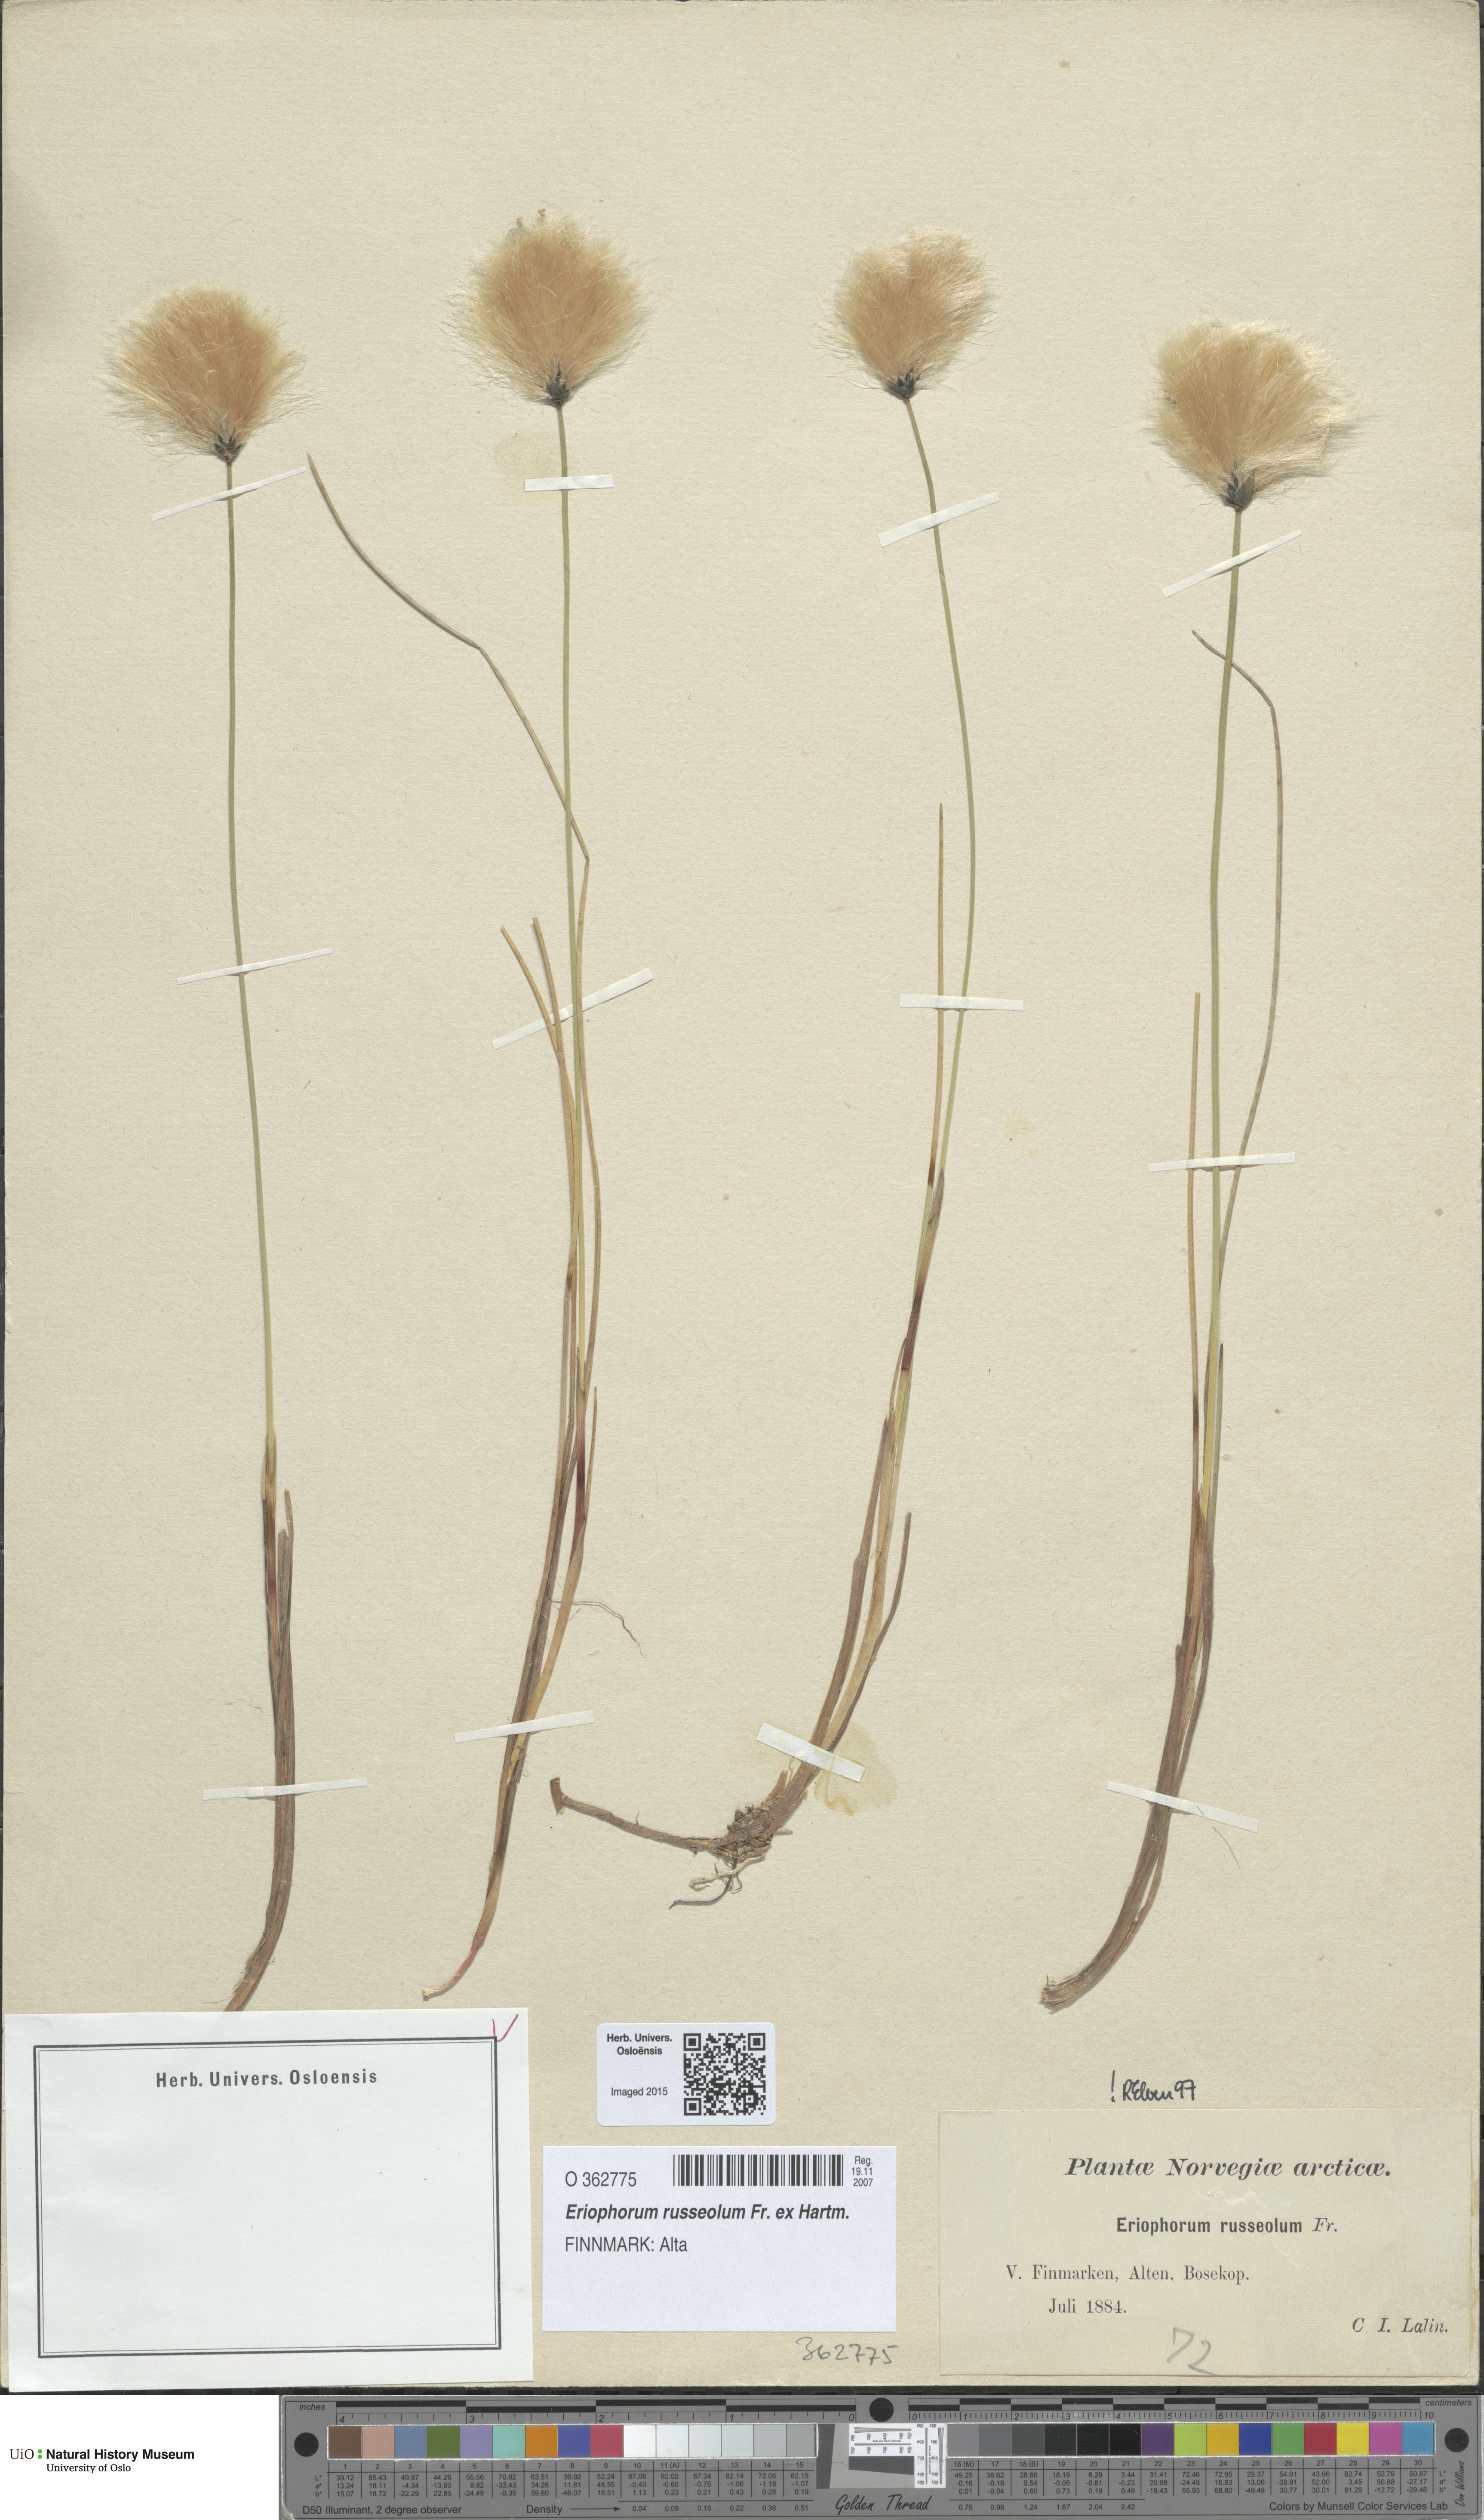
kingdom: Plantae
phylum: Tracheophyta
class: Liliopsida
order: Poales
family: Cyperaceae
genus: Eriophorum
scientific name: Eriophorum russeolum
